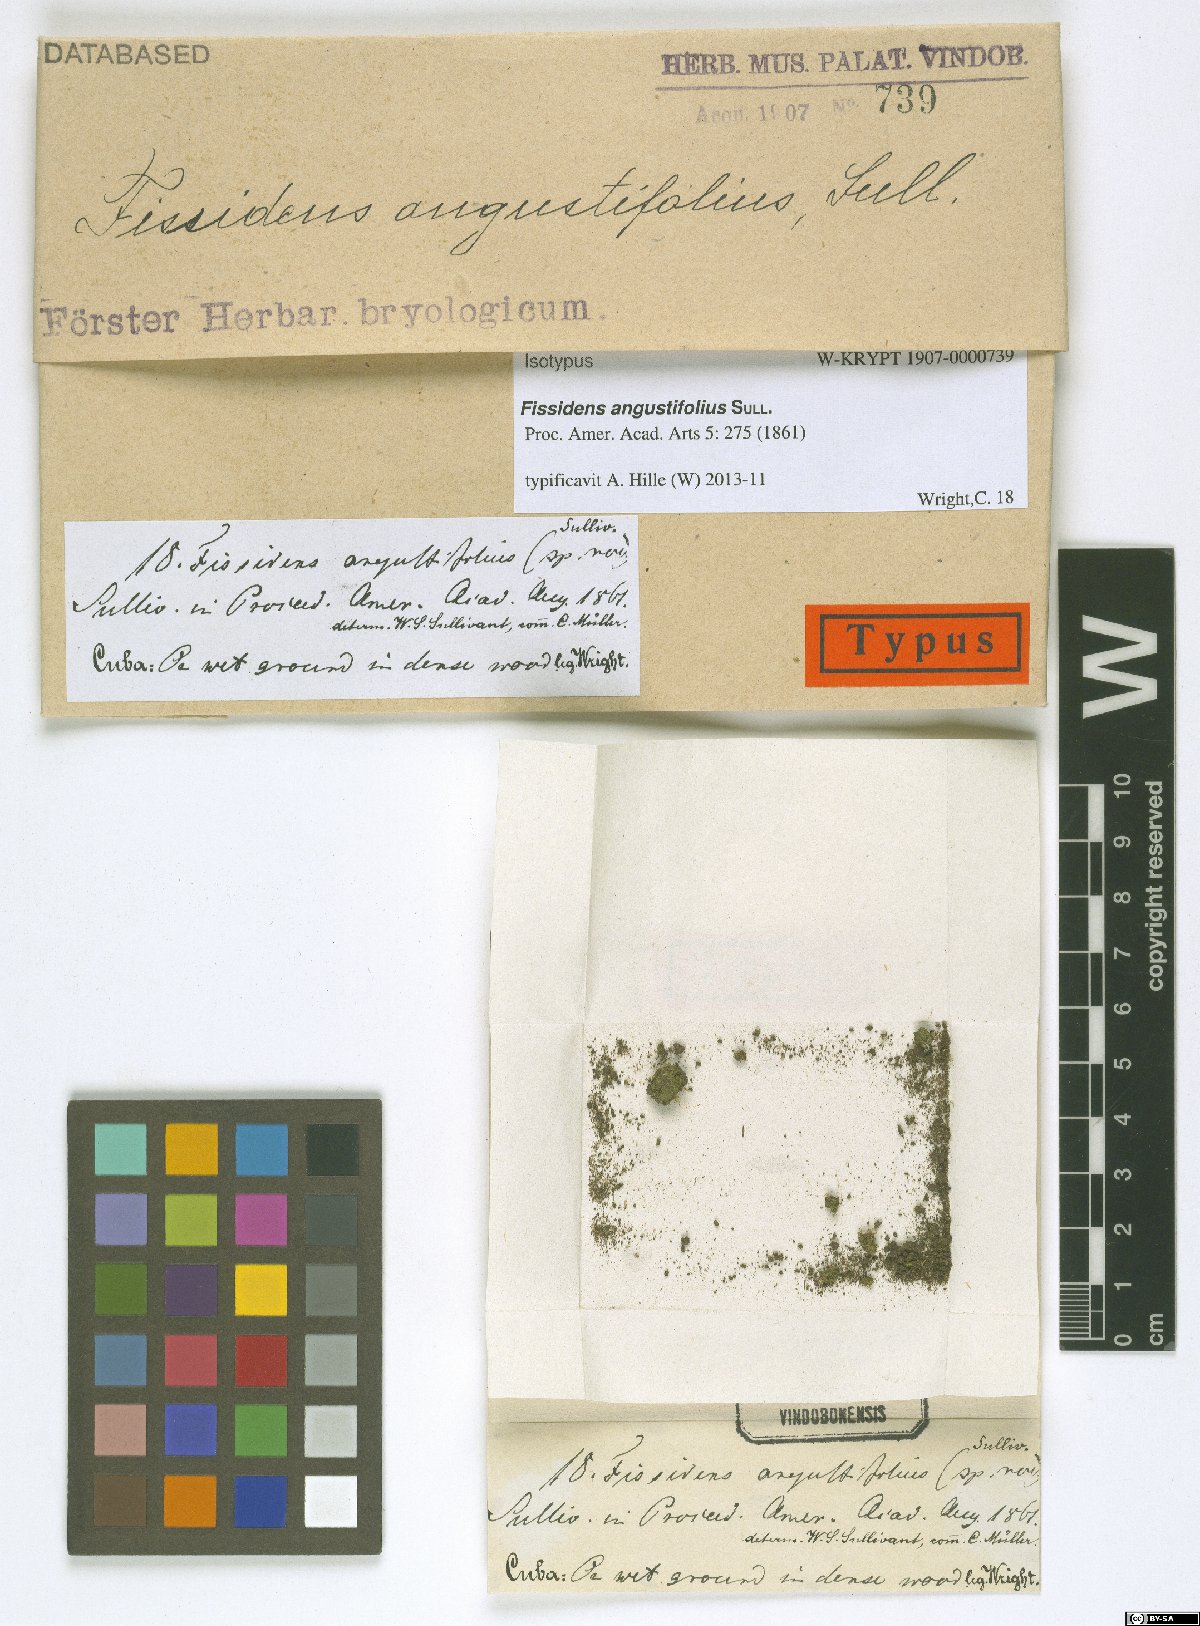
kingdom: Plantae
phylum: Bryophyta
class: Bryopsida
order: Dicranales
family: Fissidentaceae
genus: Fissidens
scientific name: Fissidens biformis
